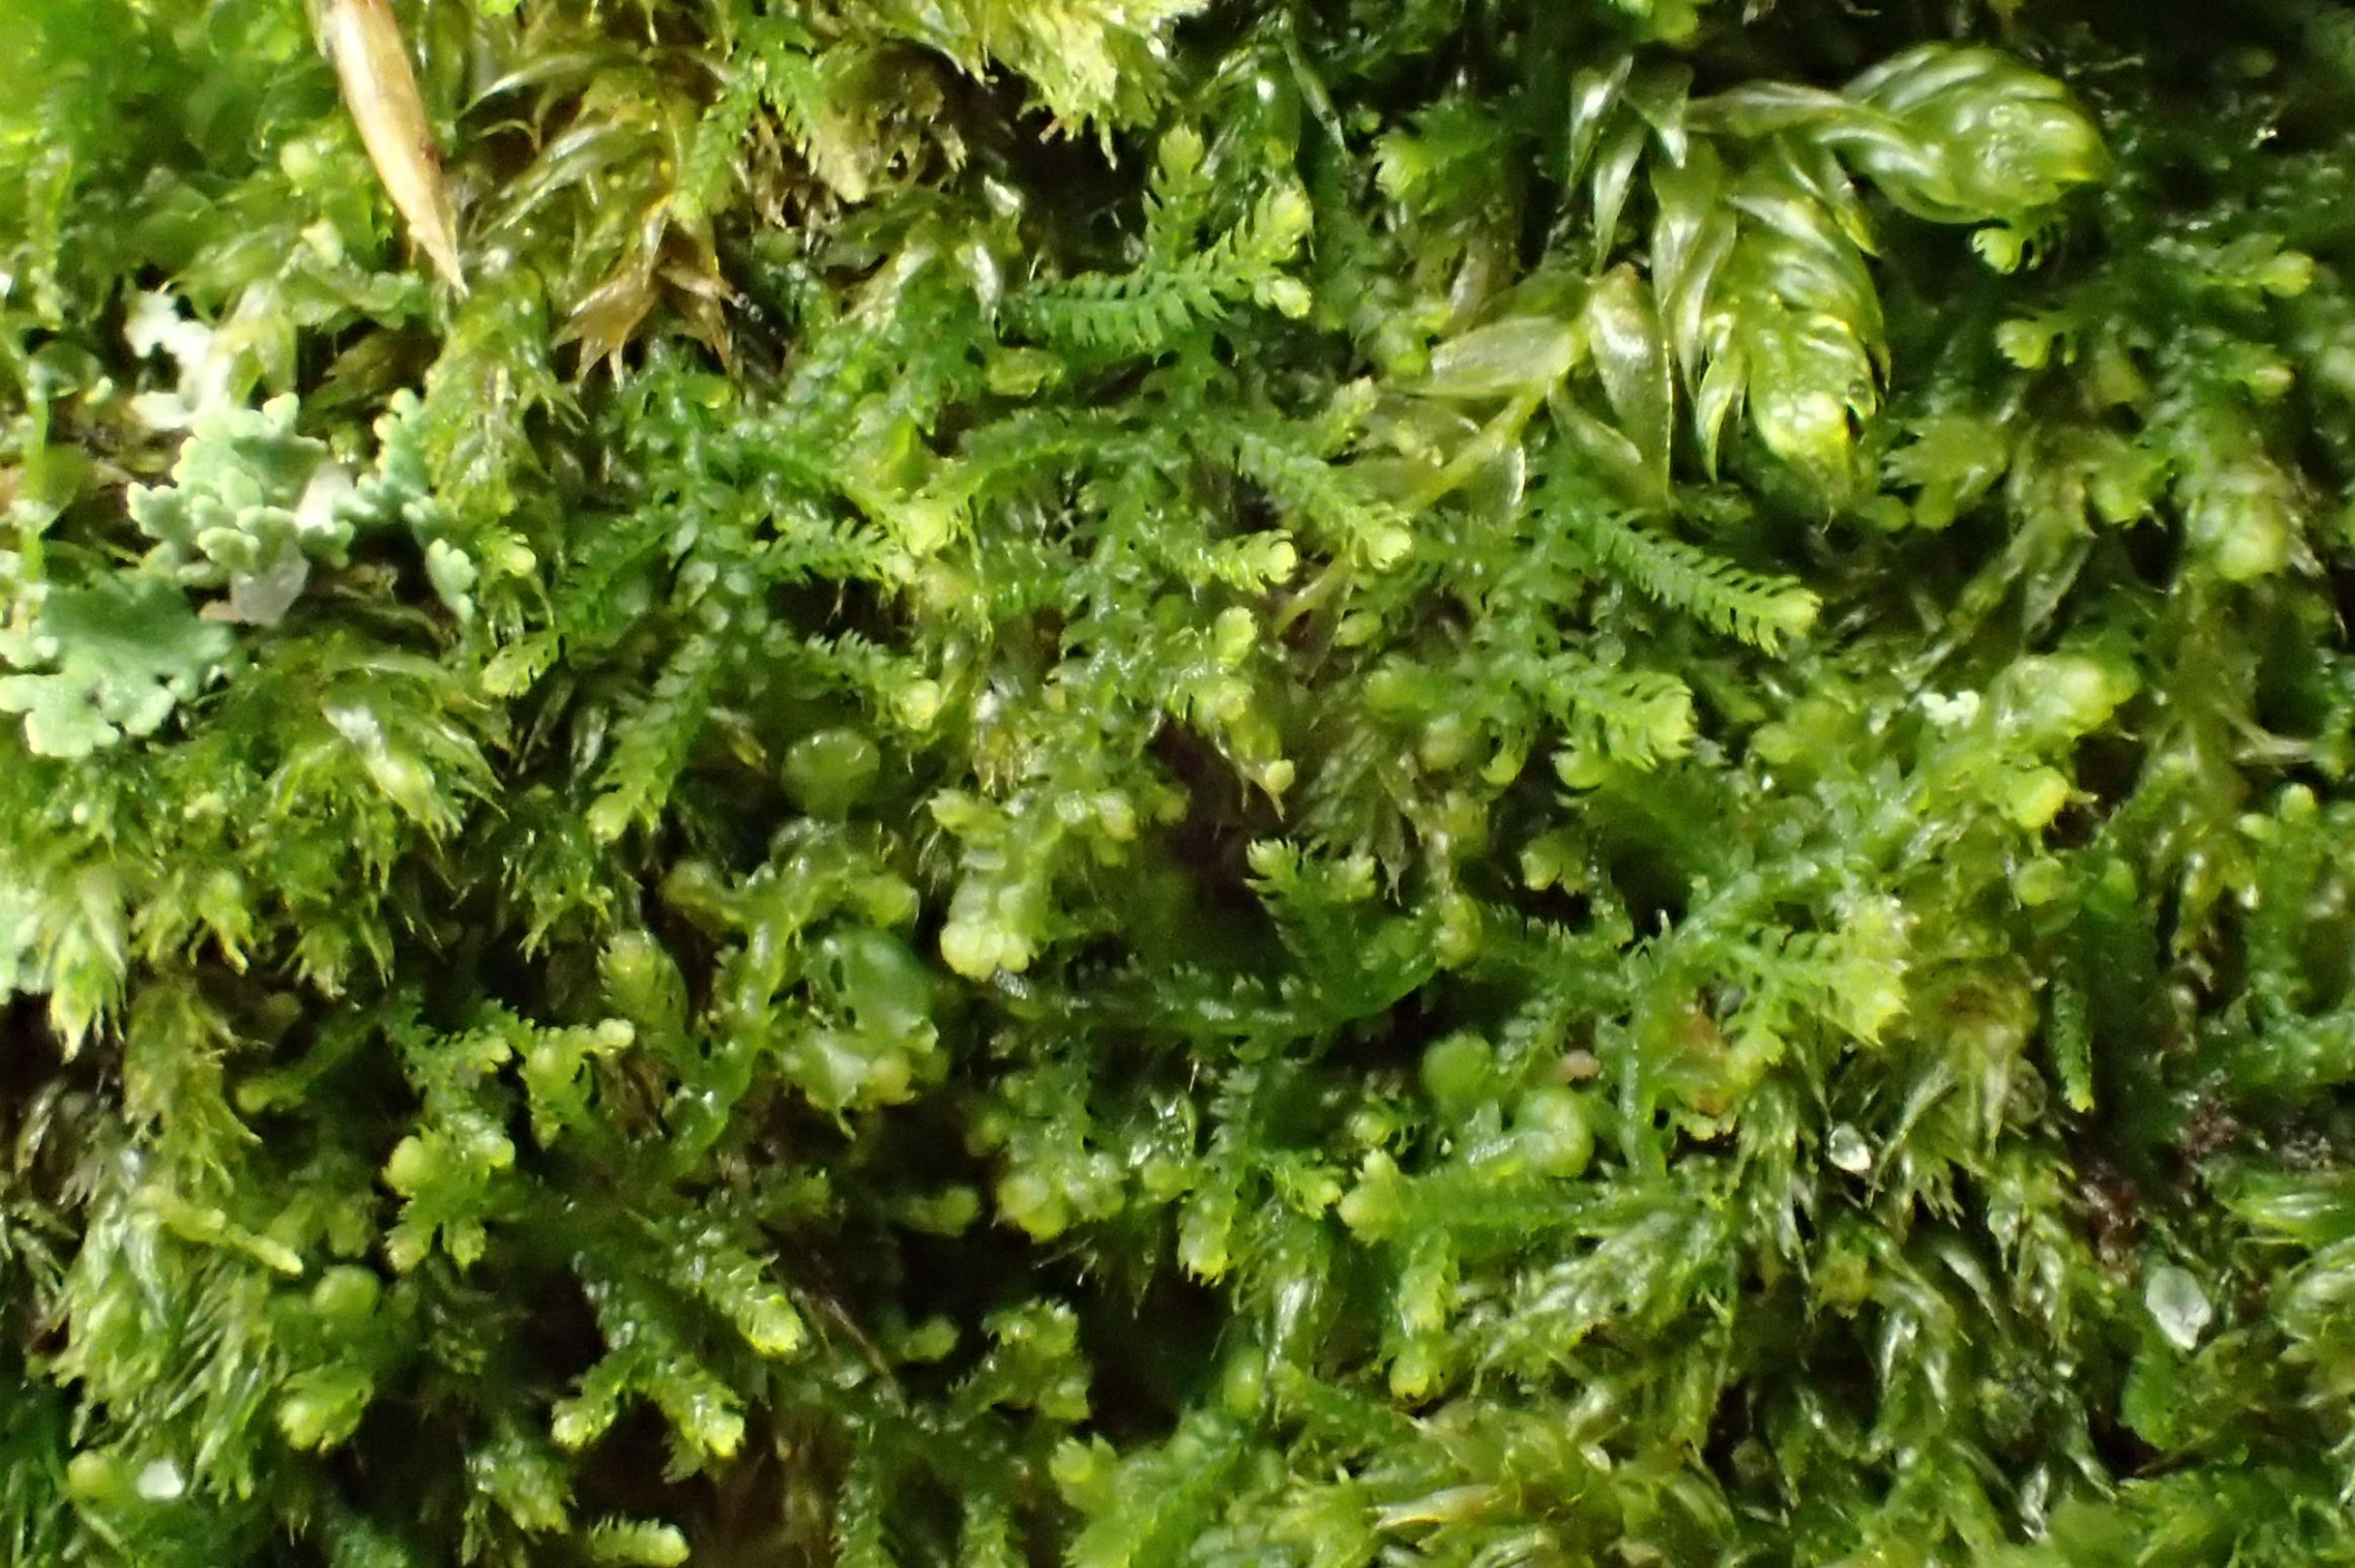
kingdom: Plantae
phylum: Marchantiophyta
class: Jungermanniopsida
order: Jungermanniales
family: Lepidoziaceae
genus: Lepidozia
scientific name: Lepidozia reptans
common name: Krybende fingermos
